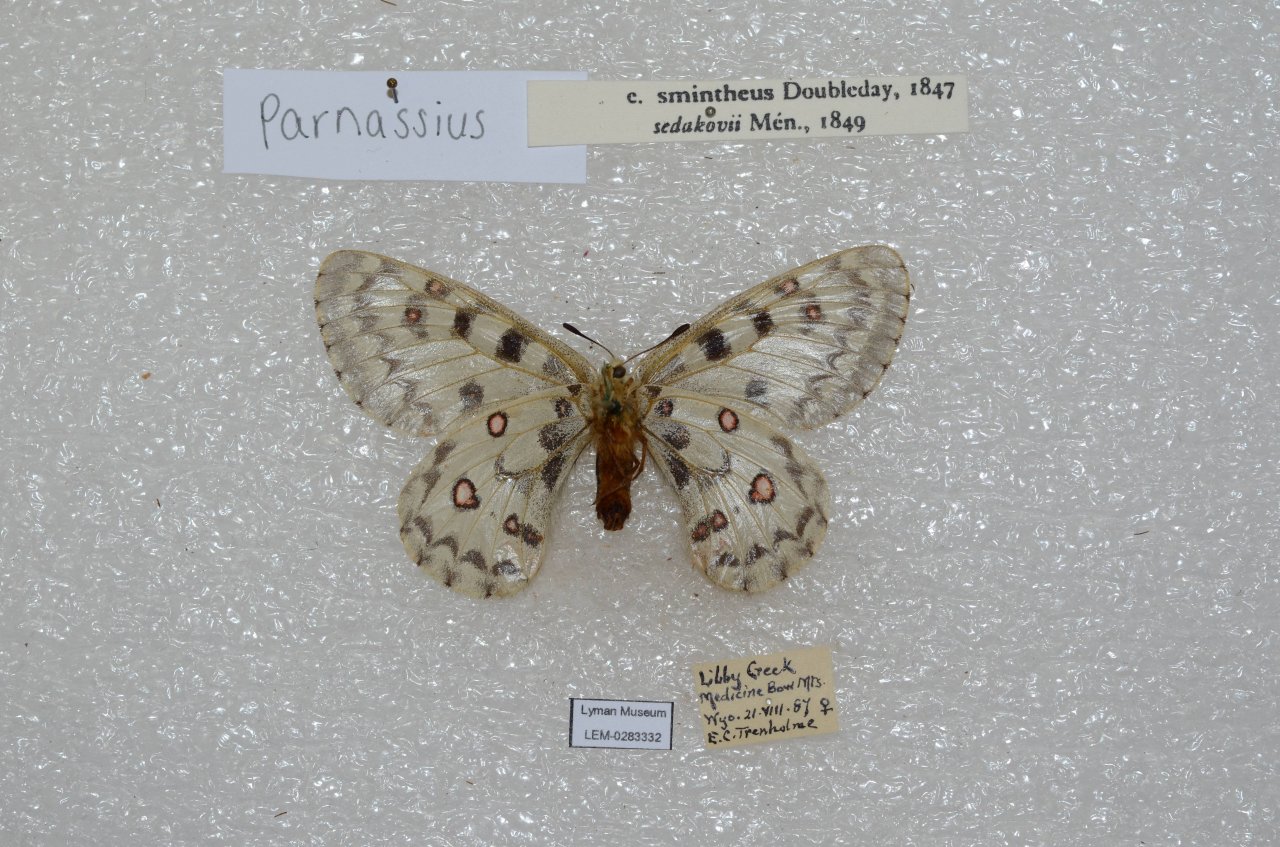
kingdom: Animalia
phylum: Arthropoda
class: Insecta
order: Lepidoptera
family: Papilionidae
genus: Parnassius
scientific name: Parnassius smintheus
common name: Rocky Mountain Parnassian
